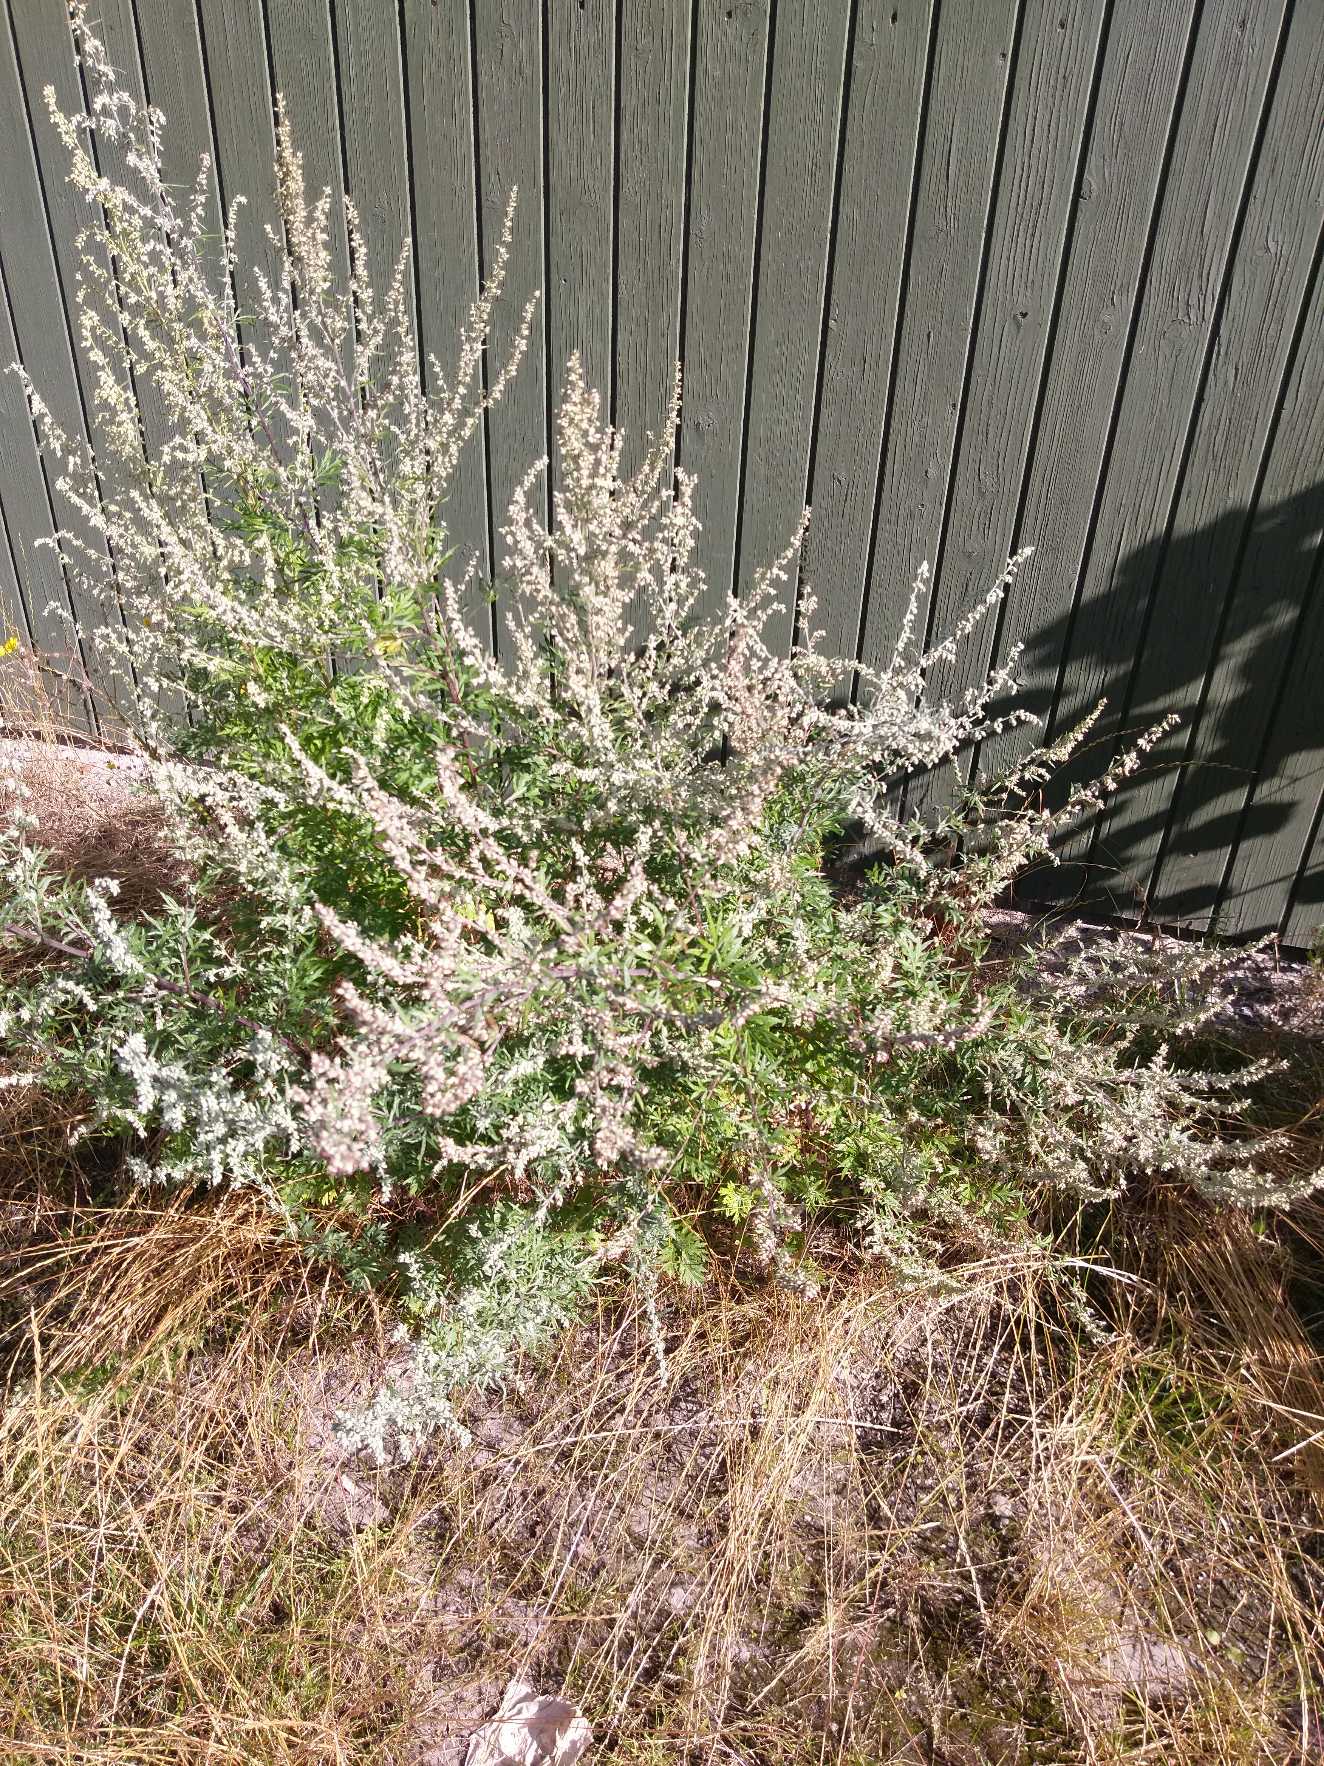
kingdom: Plantae
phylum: Tracheophyta
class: Magnoliopsida
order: Asterales
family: Asteraceae
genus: Artemisia
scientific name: Artemisia vulgaris
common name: Grå-bynke
